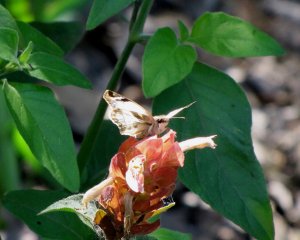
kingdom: Animalia
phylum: Arthropoda
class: Insecta
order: Lepidoptera
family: Hesperiidae
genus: Heliopetes
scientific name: Heliopetes laviana
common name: Laviana White-Skipper
